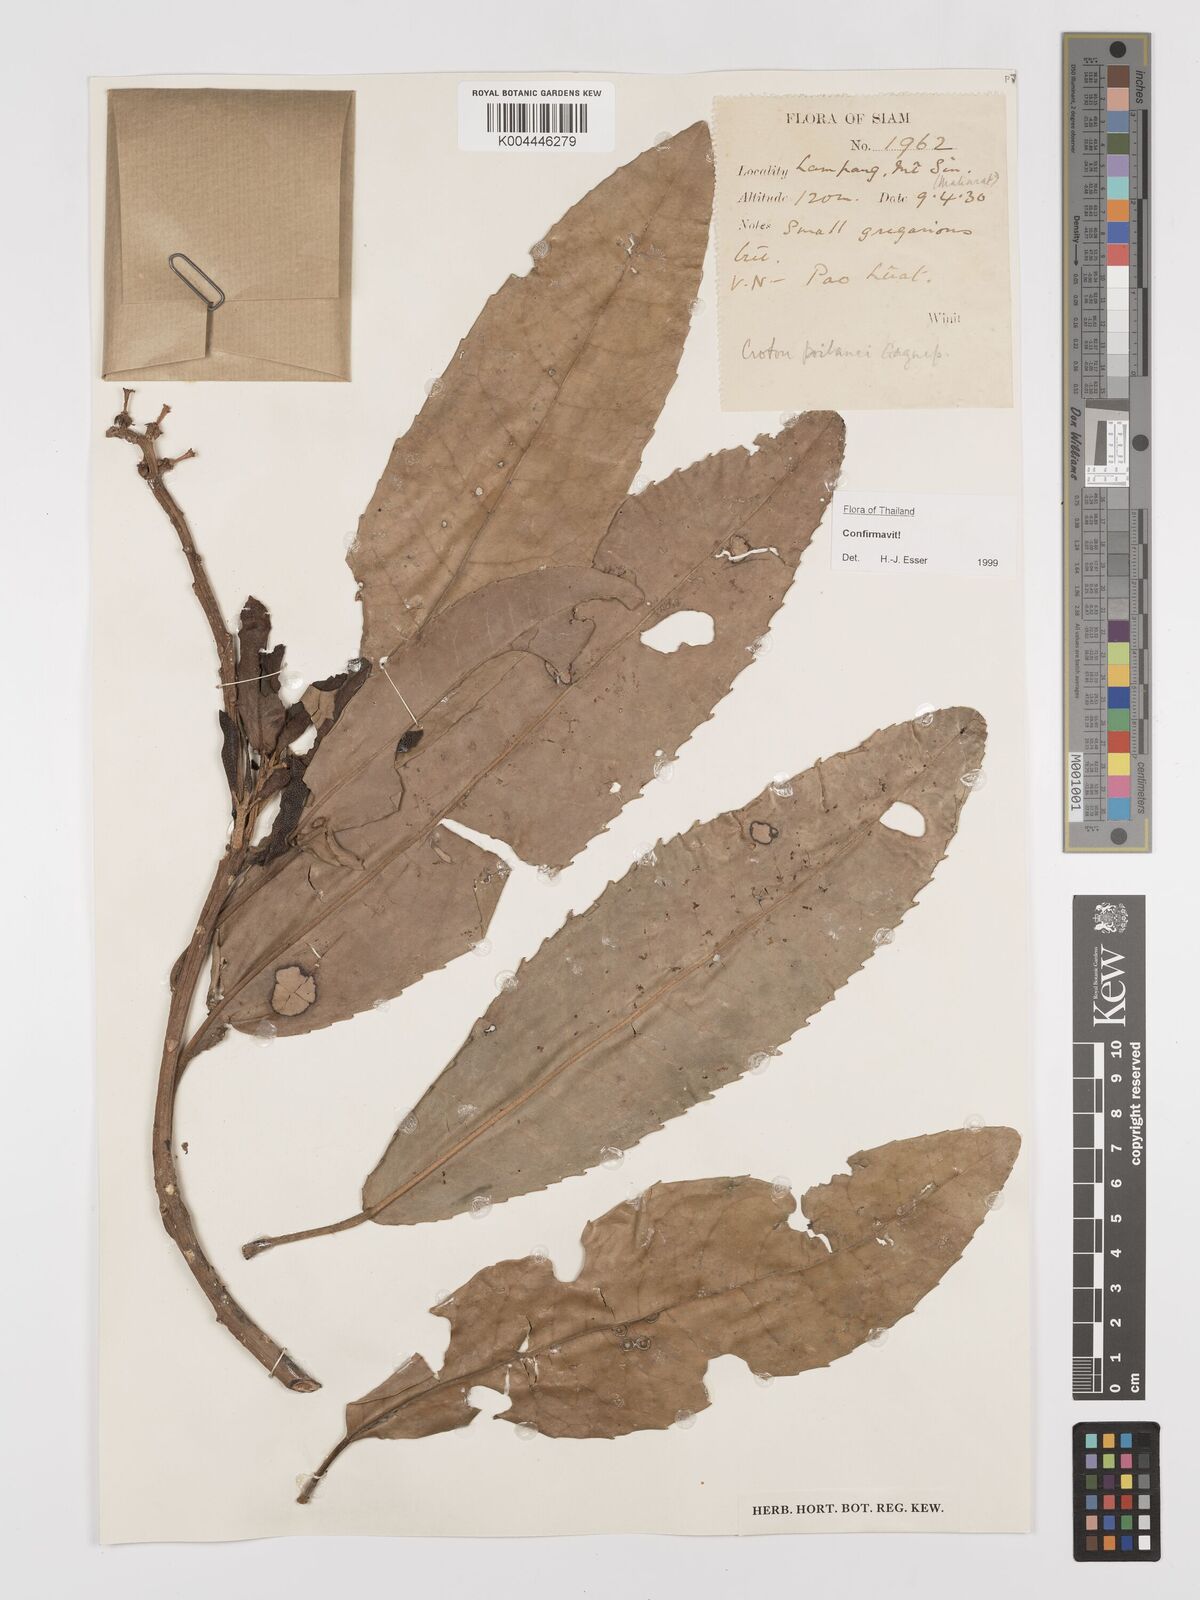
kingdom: Plantae
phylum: Tracheophyta
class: Magnoliopsida
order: Malpighiales
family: Euphorbiaceae
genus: Croton
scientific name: Croton poilanei
